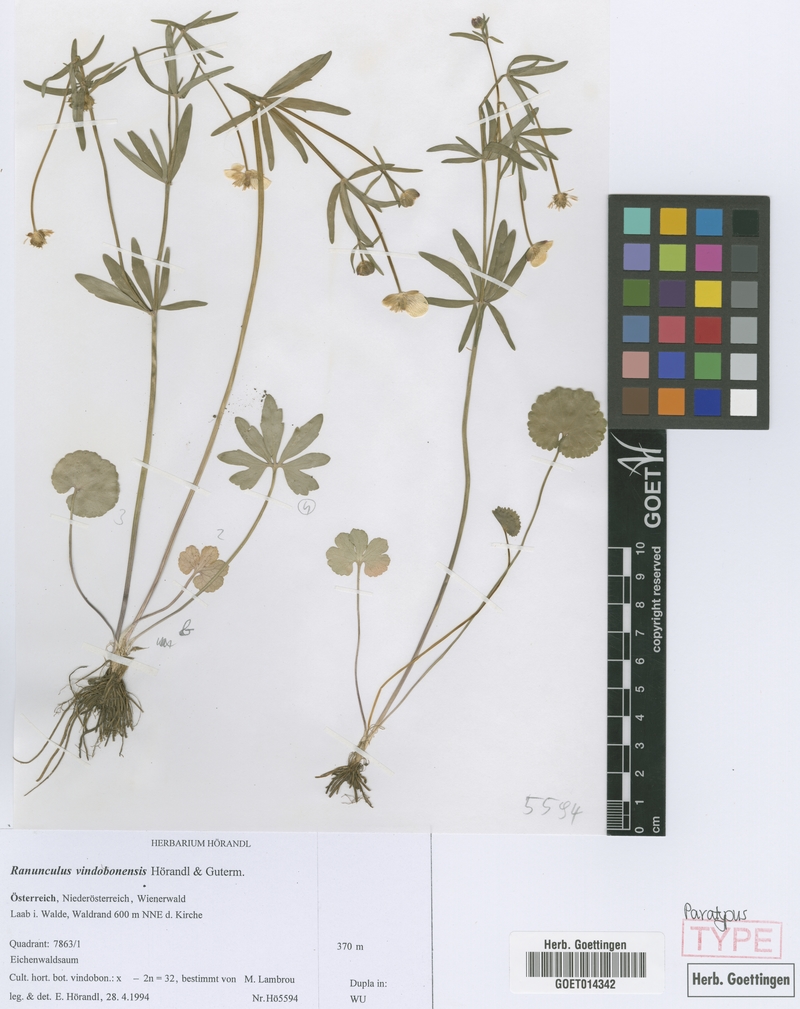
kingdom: Plantae
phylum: Tracheophyta
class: Magnoliopsida
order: Ranunculales
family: Ranunculaceae
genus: Ranunculus
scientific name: Ranunculus vindobonensis
